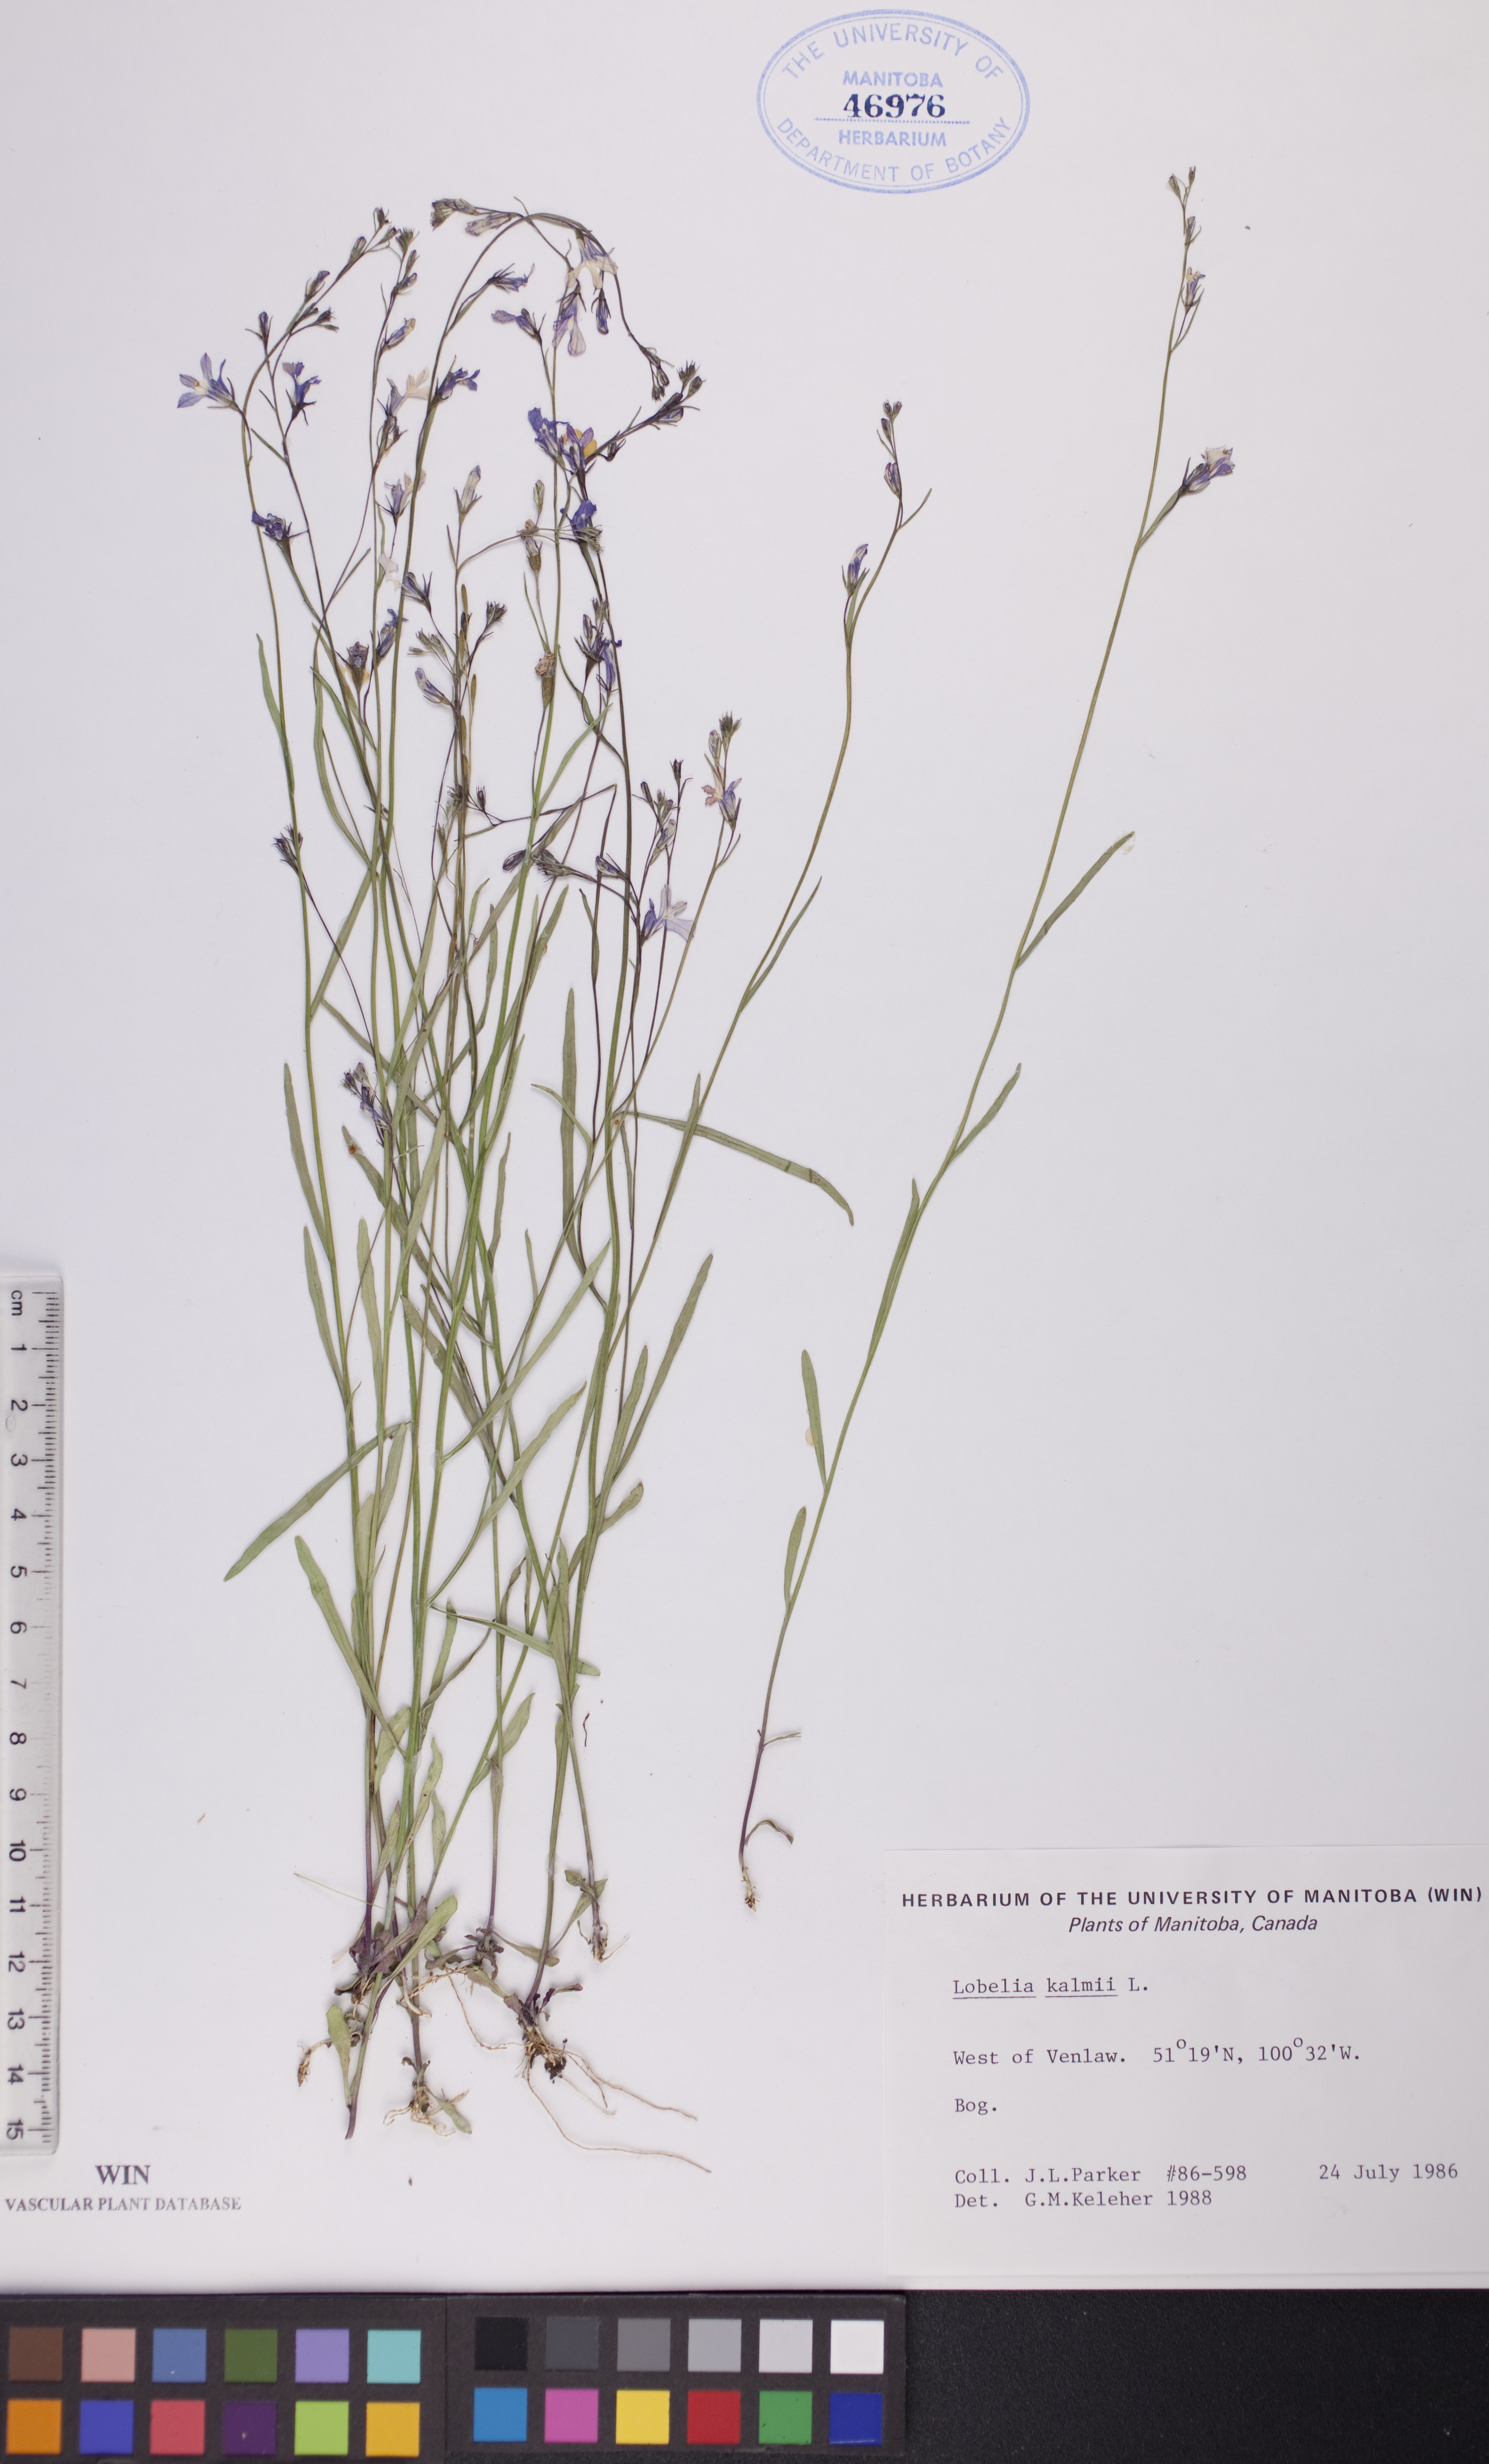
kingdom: Plantae
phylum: Tracheophyta
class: Magnoliopsida
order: Asterales
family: Campanulaceae
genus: Lobelia
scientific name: Lobelia kalmii
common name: Kalm's lobelia
